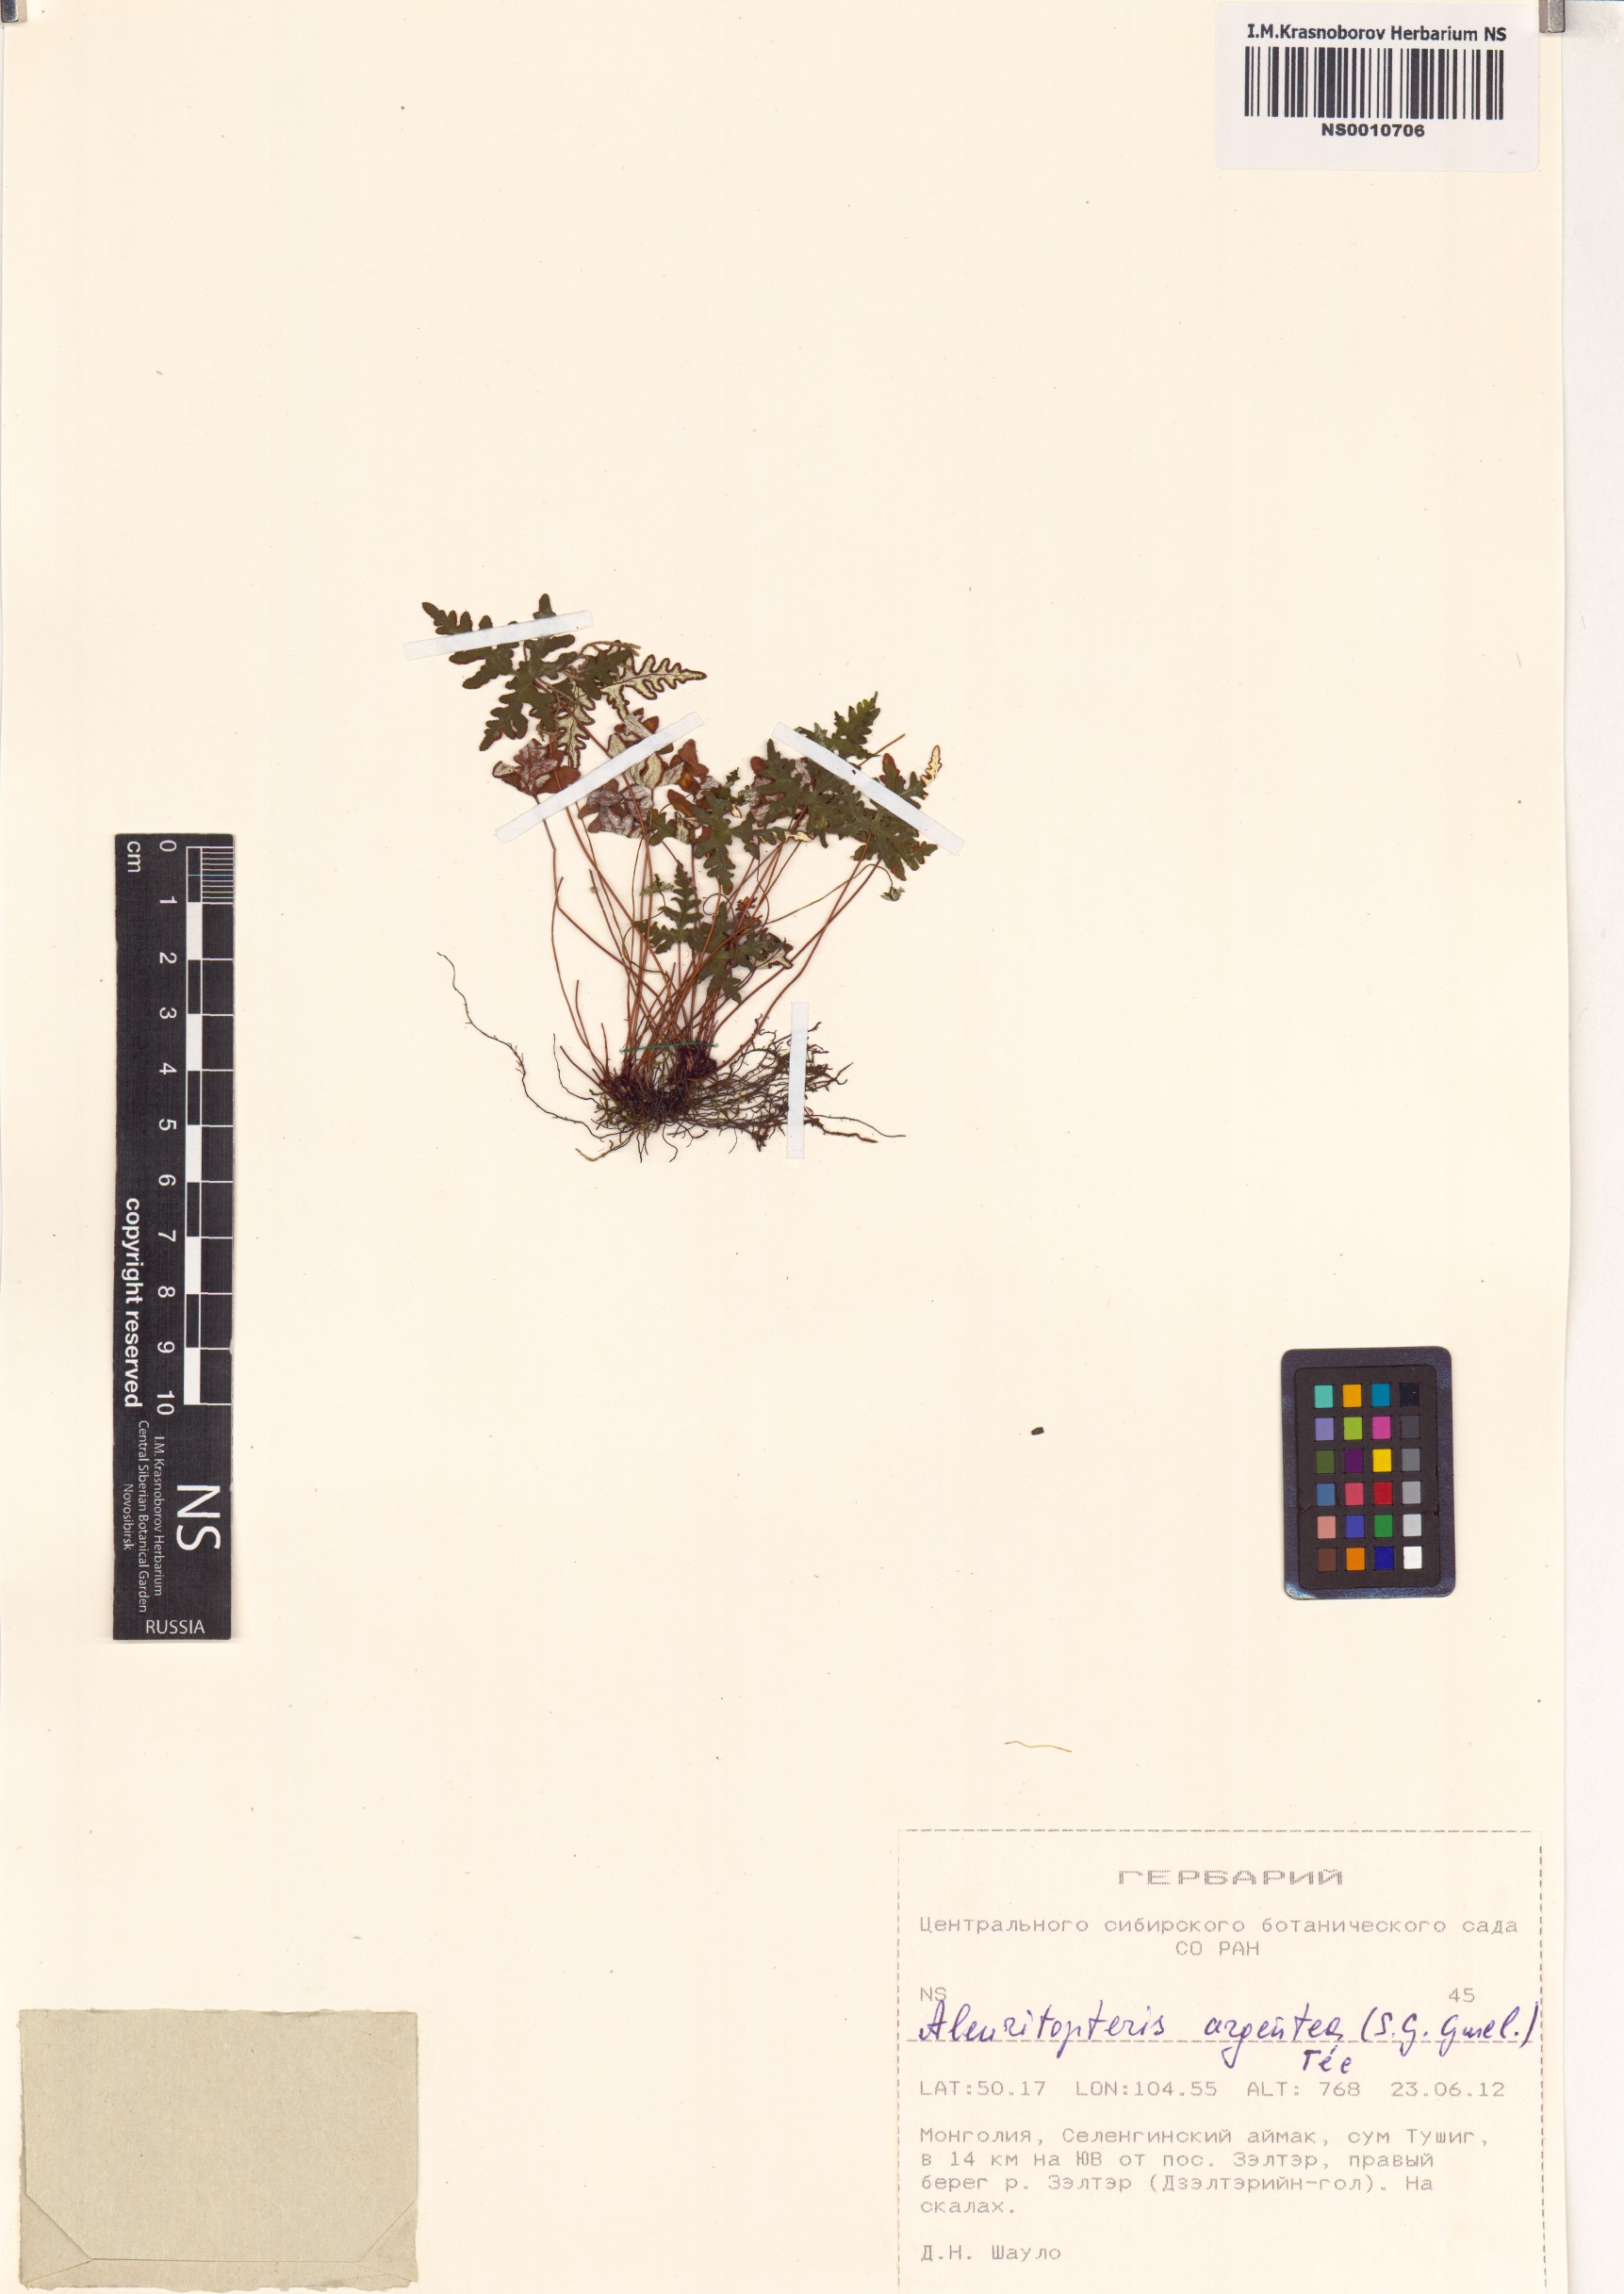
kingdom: Plantae
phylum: Tracheophyta
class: Polypodiopsida
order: Polypodiales
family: Pteridaceae
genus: Aleuritopteris
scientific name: Aleuritopteris argentea
